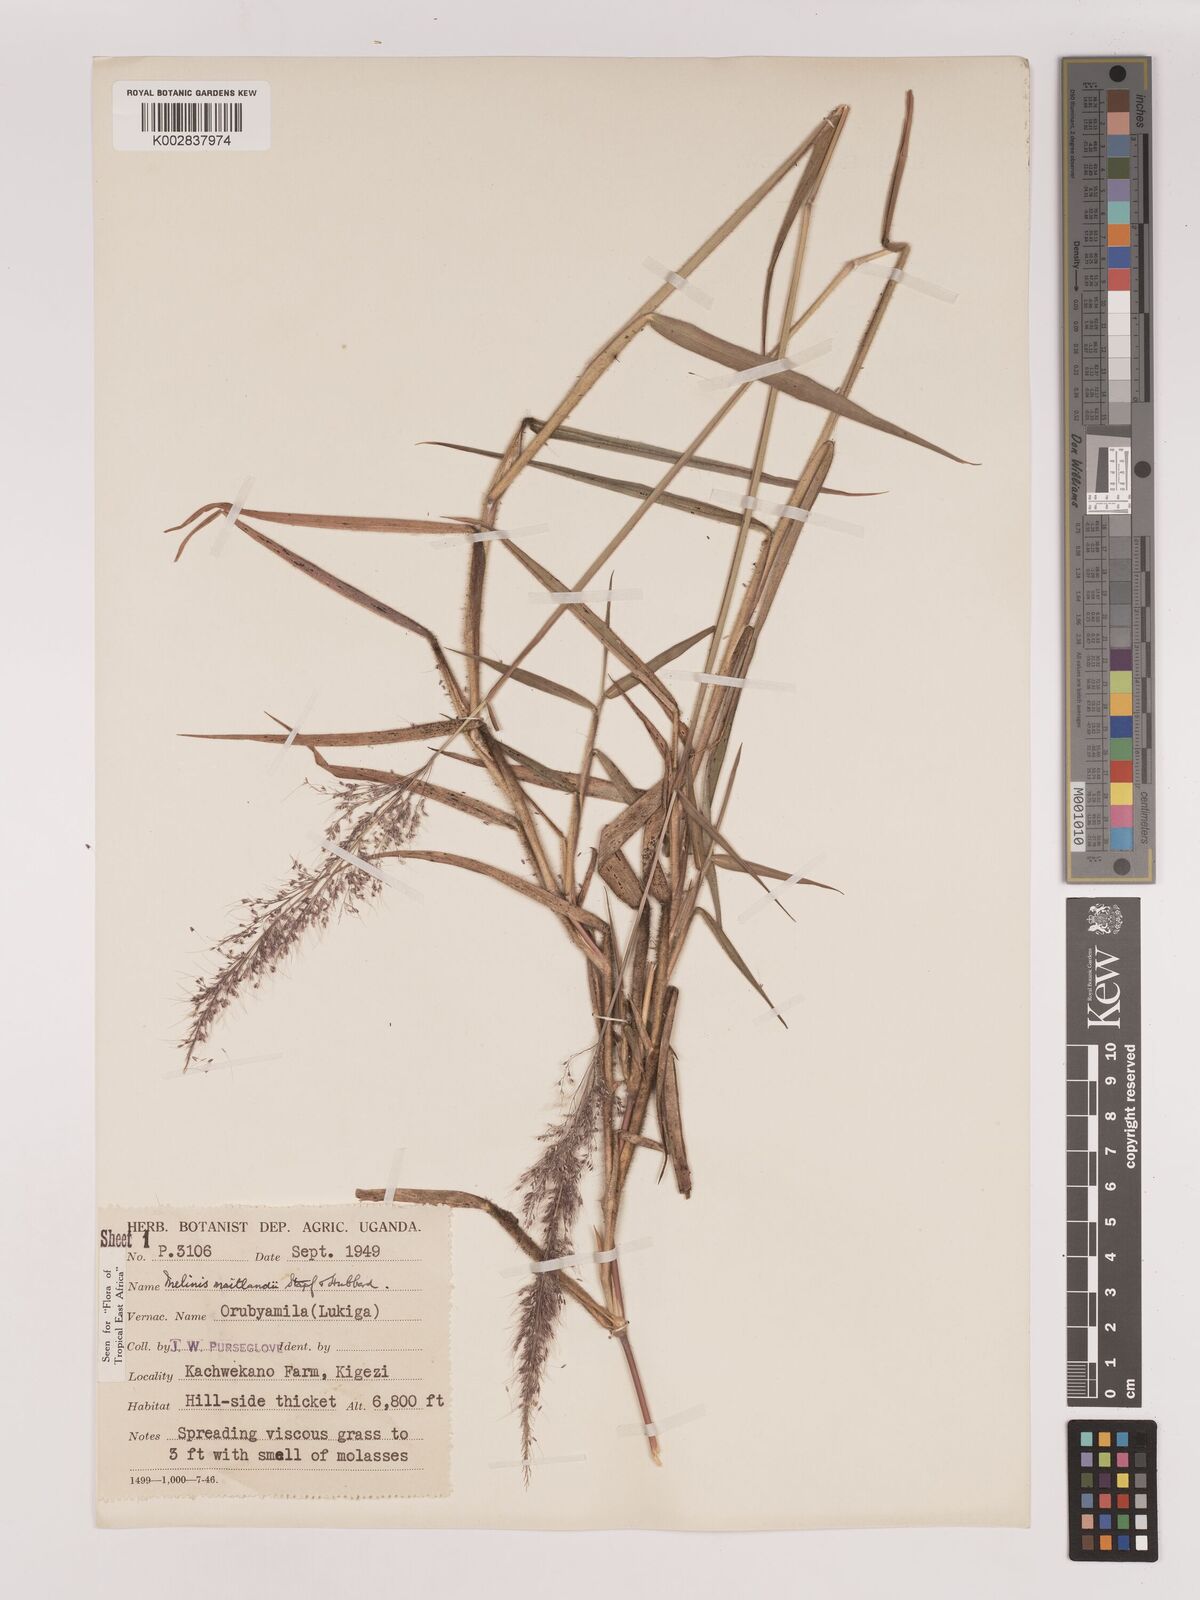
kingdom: Plantae
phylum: Tracheophyta
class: Liliopsida
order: Poales
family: Poaceae
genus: Melinis
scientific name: Melinis minutiflora
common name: Molassesgrass
